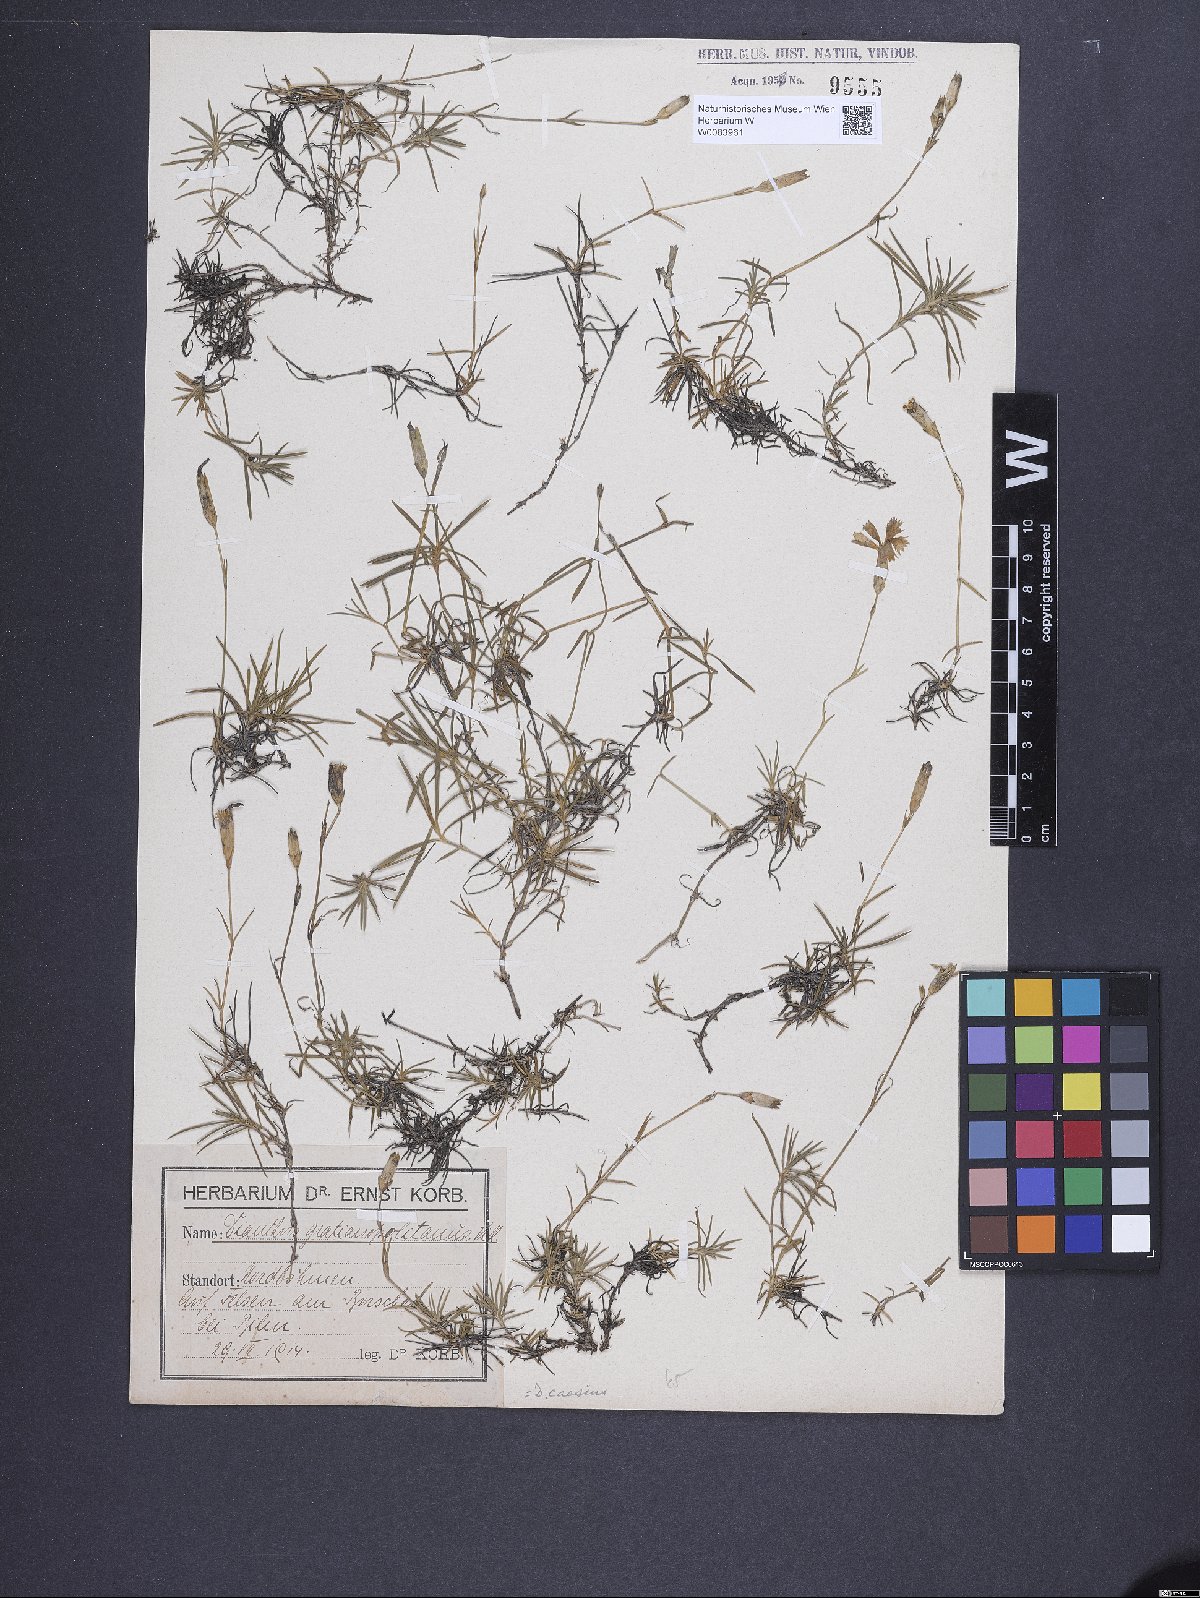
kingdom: Plantae
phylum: Tracheophyta
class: Magnoliopsida
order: Caryophyllales
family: Caryophyllaceae
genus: Dianthus
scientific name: Dianthus gratianopolitanus
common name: Cheddar pink
